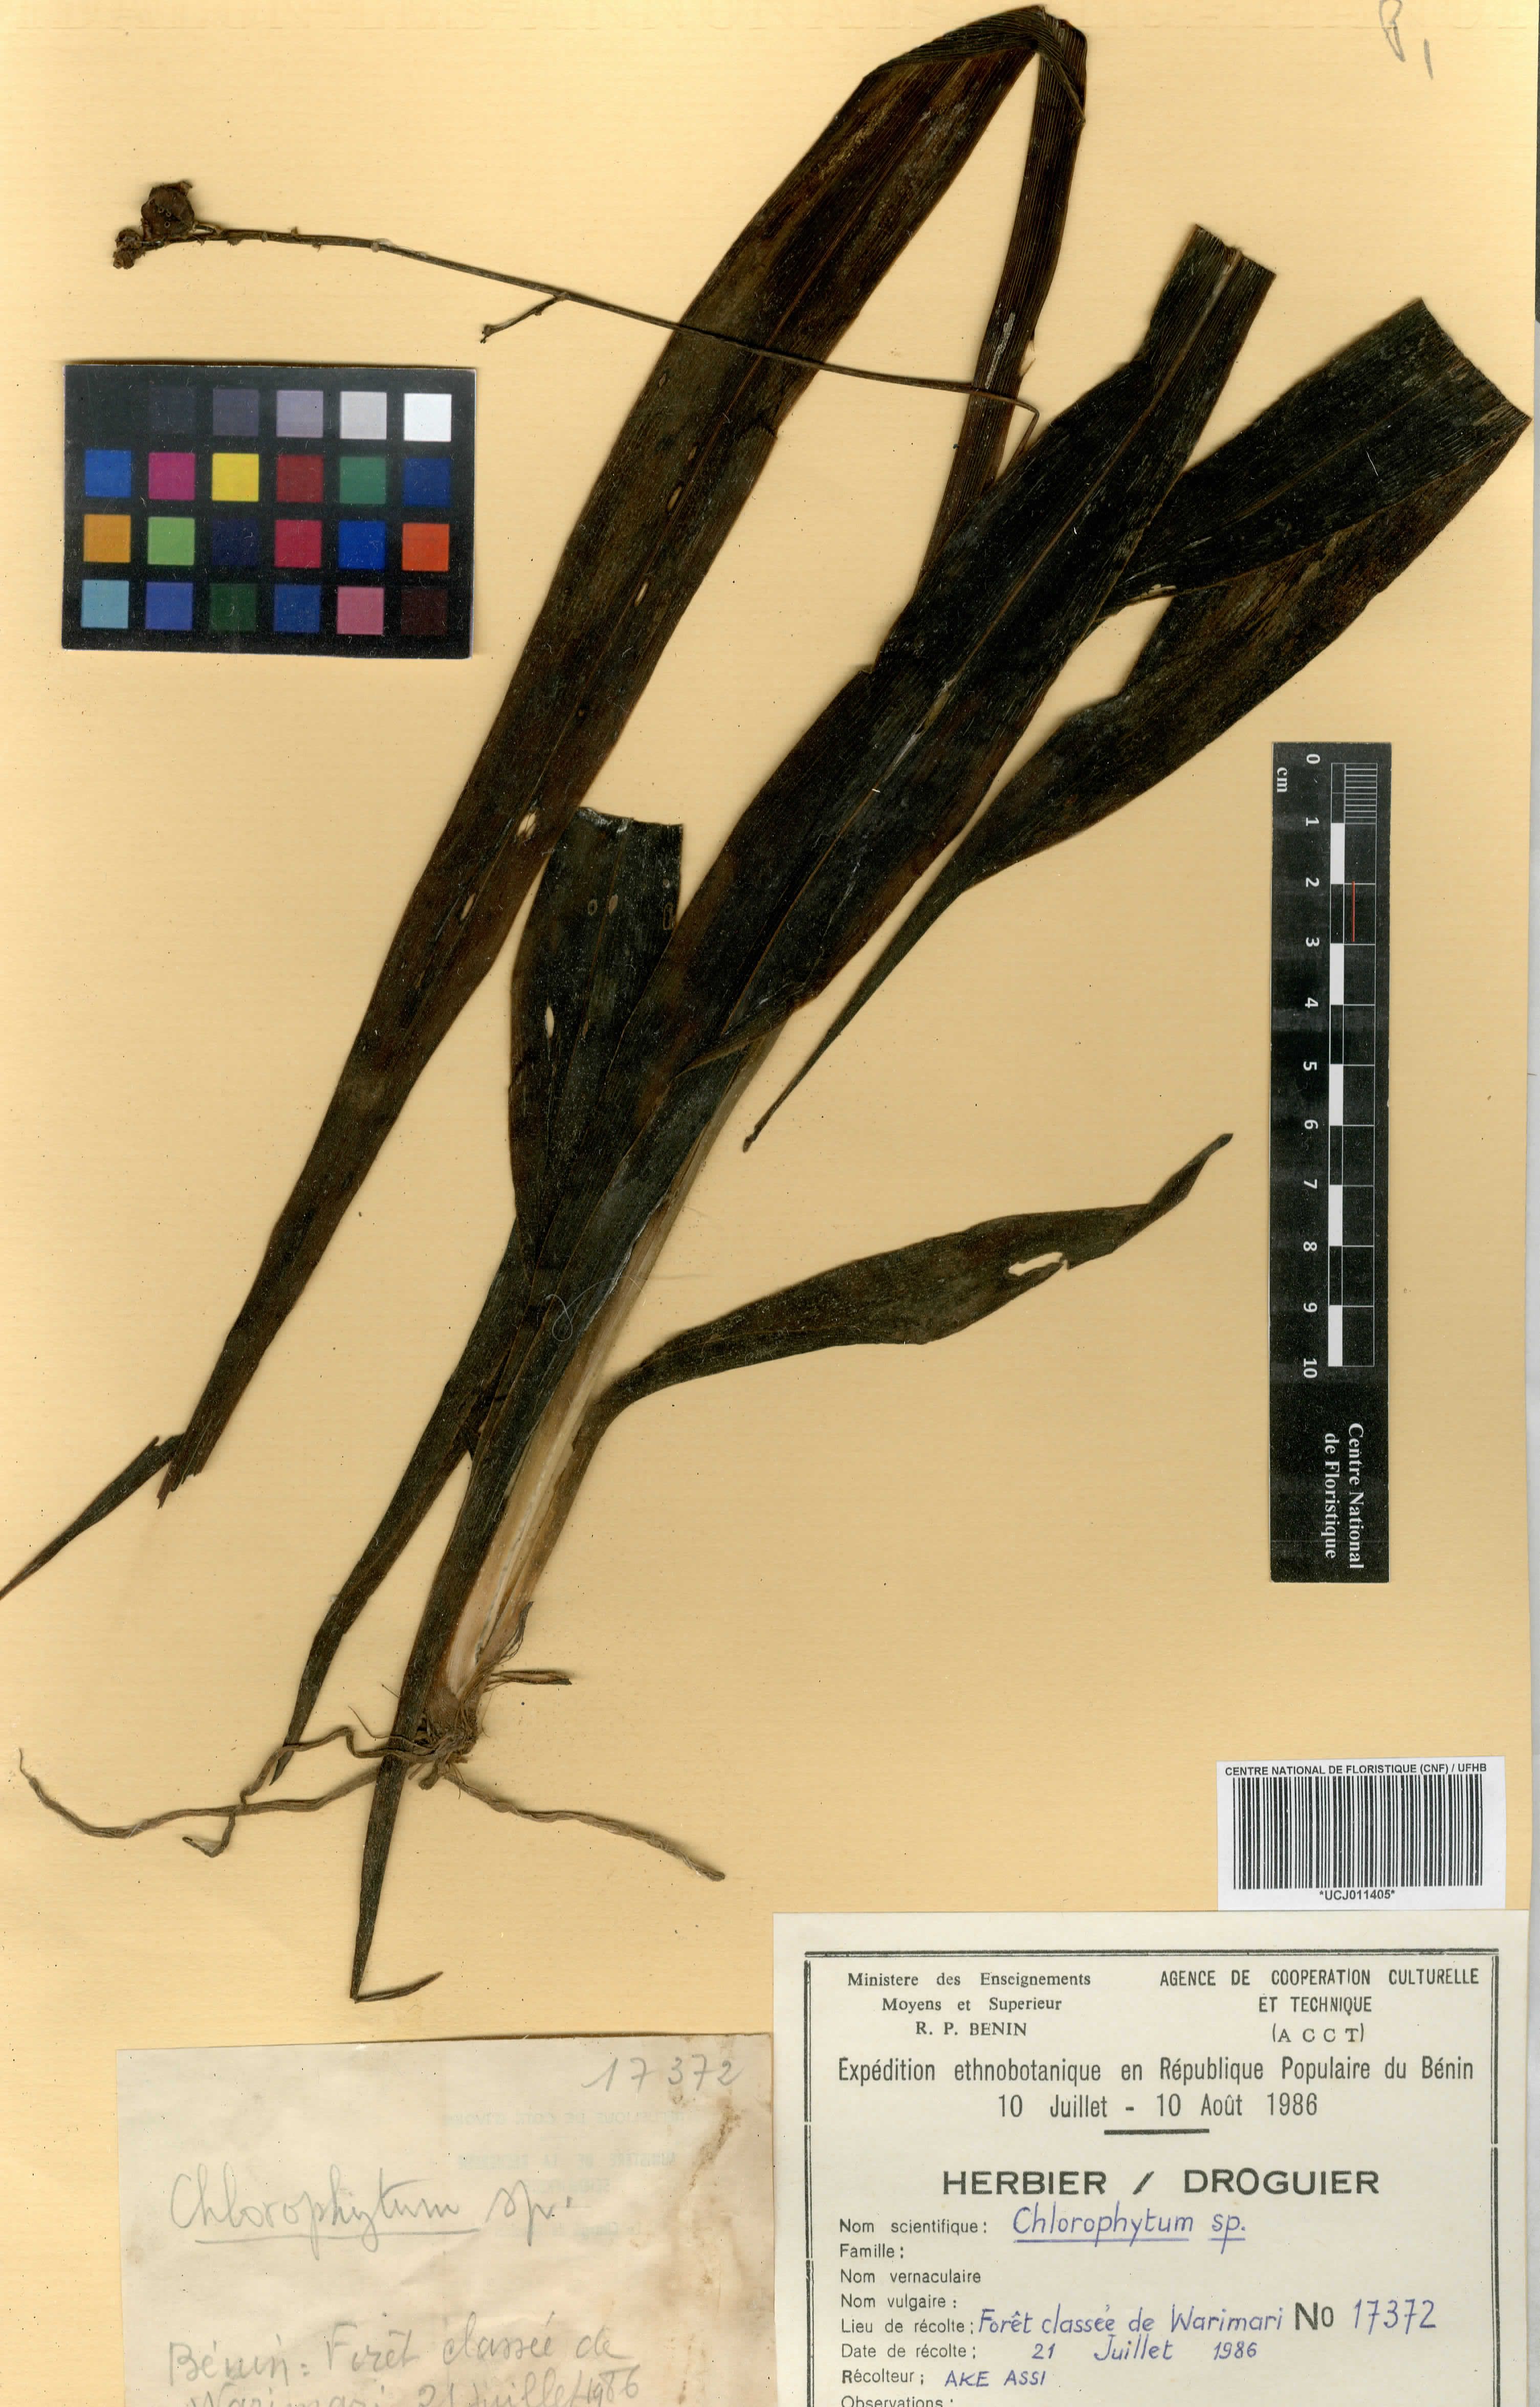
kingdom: Plantae
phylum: Tracheophyta
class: Liliopsida
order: Liliales
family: Liliaceae
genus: Chlorophytum
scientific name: Chlorophytum
